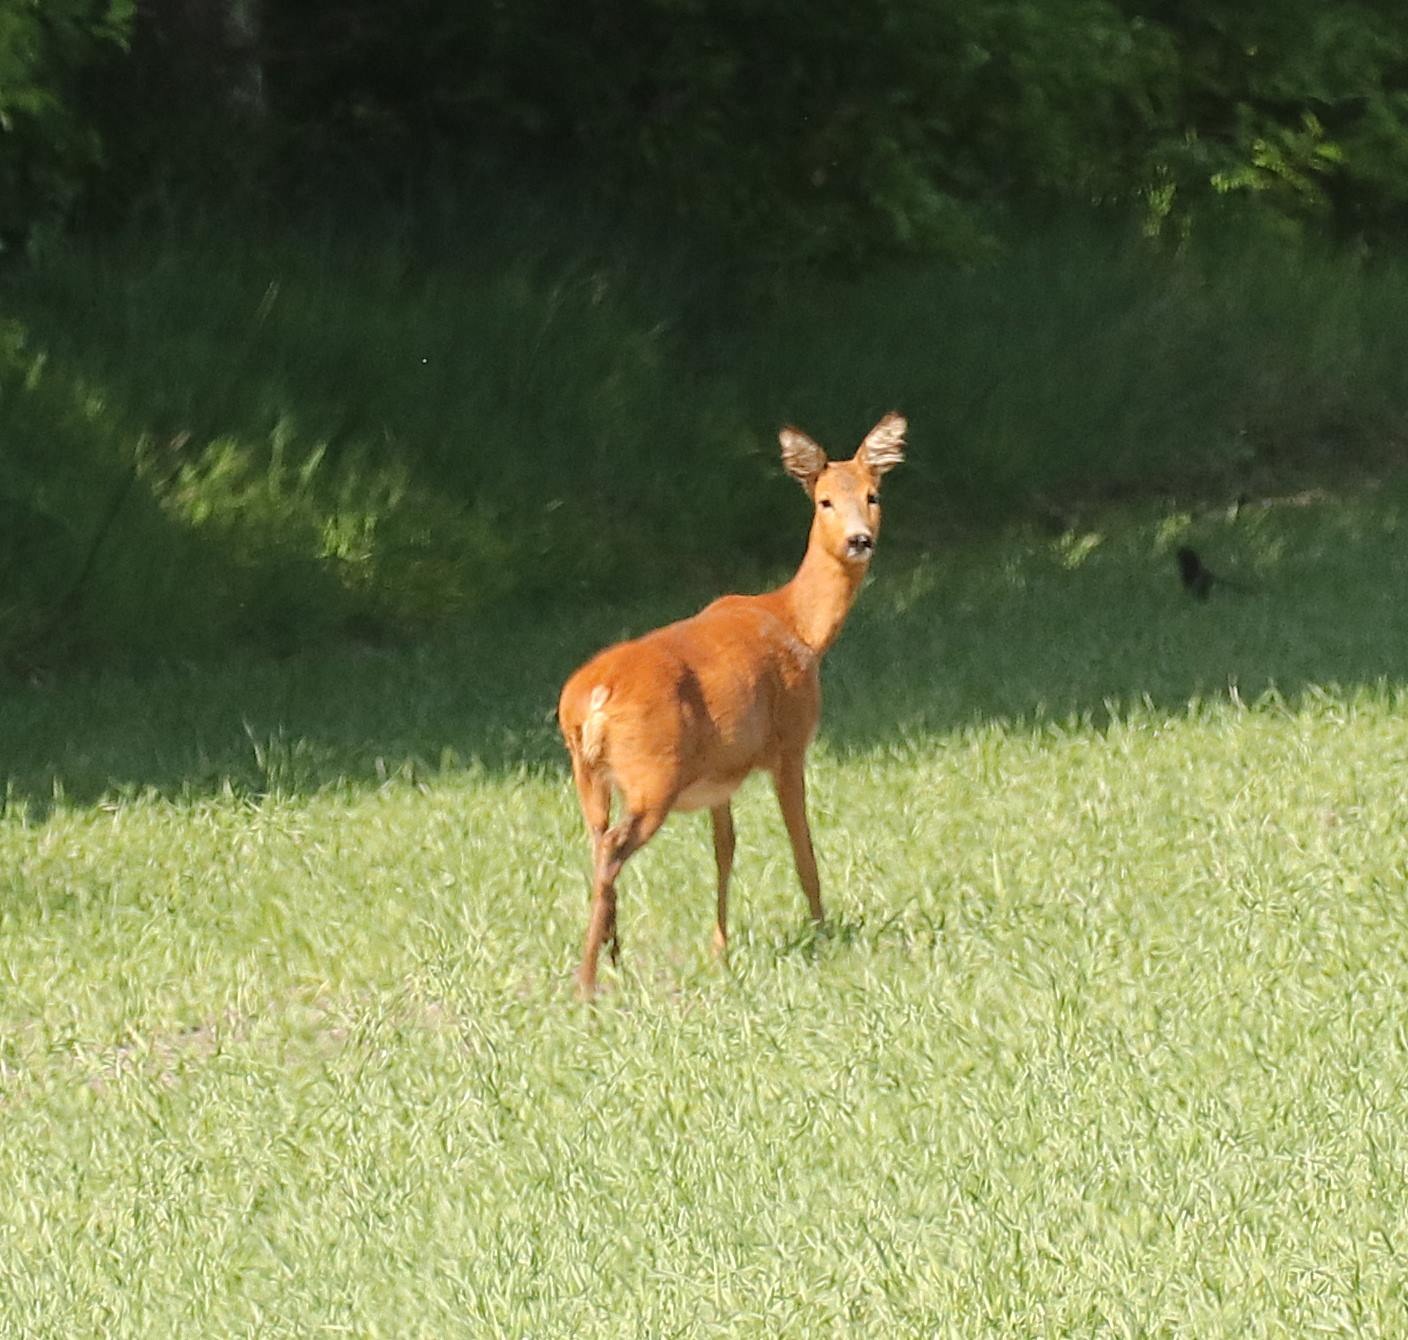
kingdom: Animalia
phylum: Chordata
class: Mammalia
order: Artiodactyla
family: Cervidae
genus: Capreolus
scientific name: Capreolus capreolus
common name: Rådyr
